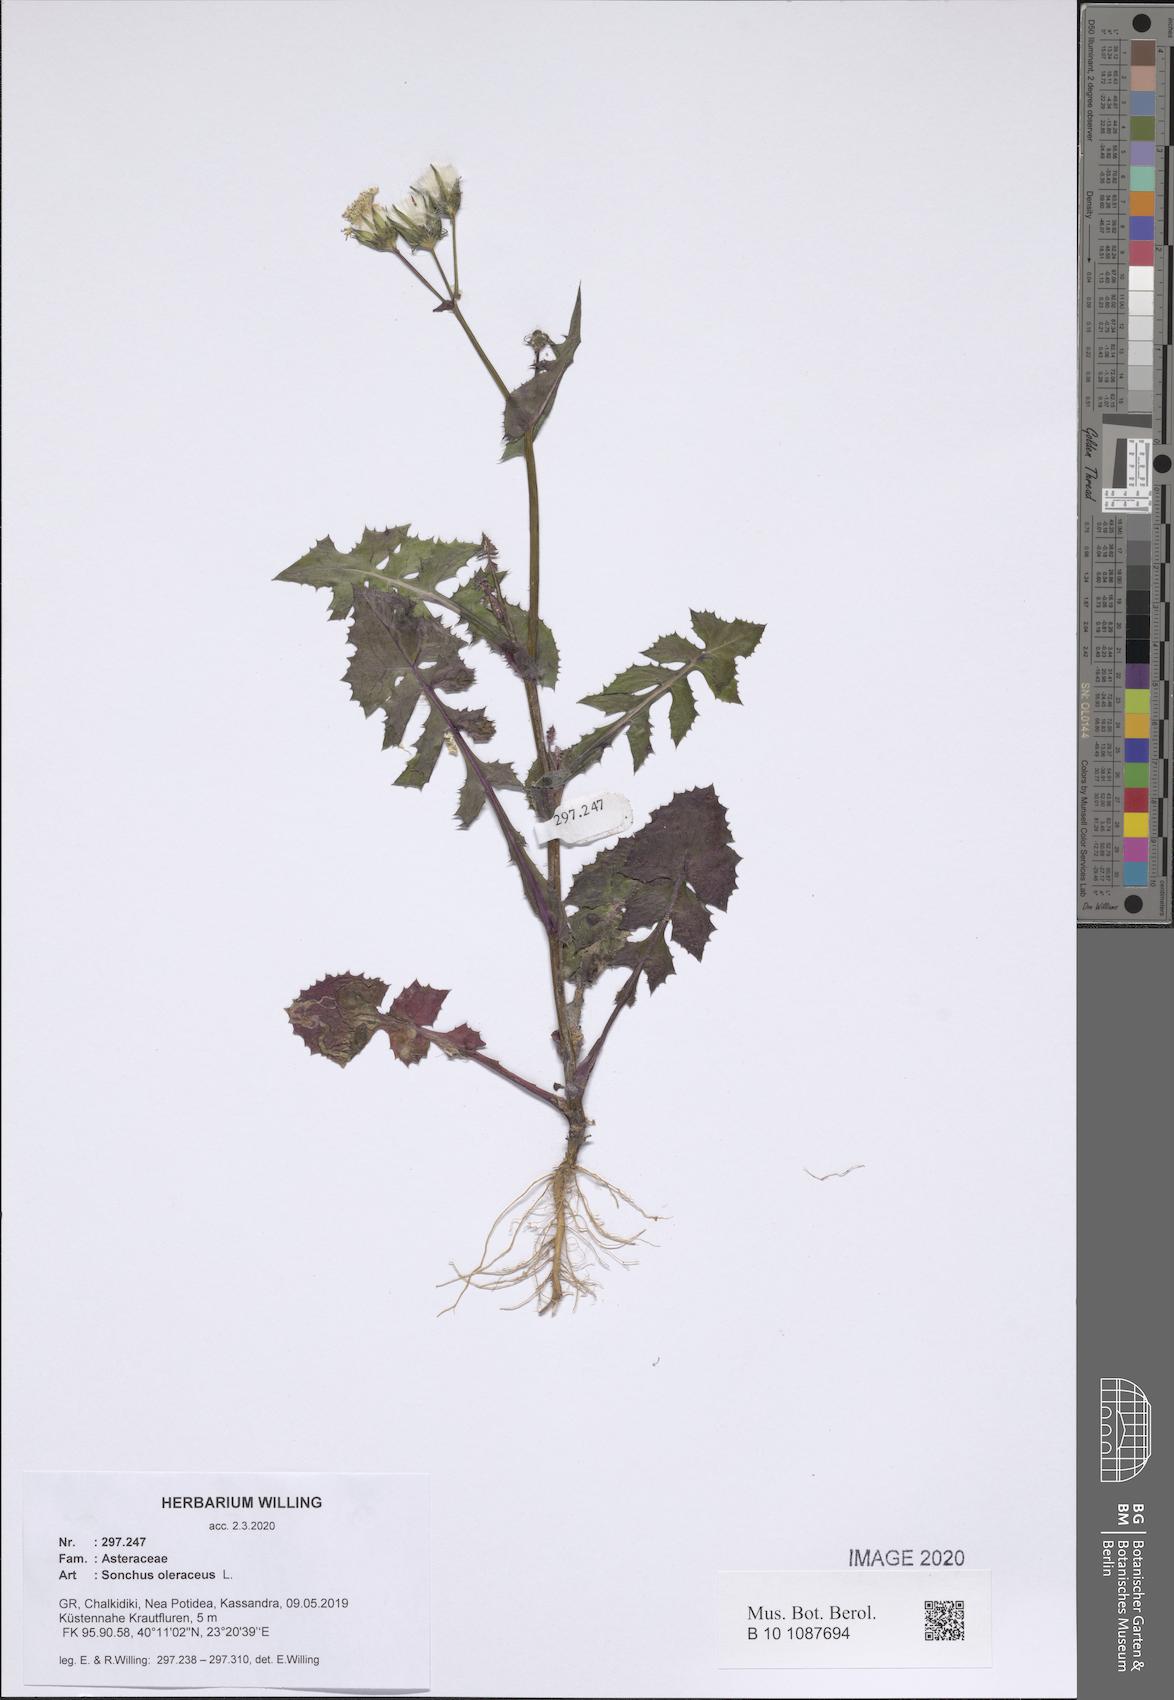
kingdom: Plantae
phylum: Tracheophyta
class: Magnoliopsida
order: Asterales
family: Asteraceae
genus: Sonchus
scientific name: Sonchus oleraceus
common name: Common sowthistle
